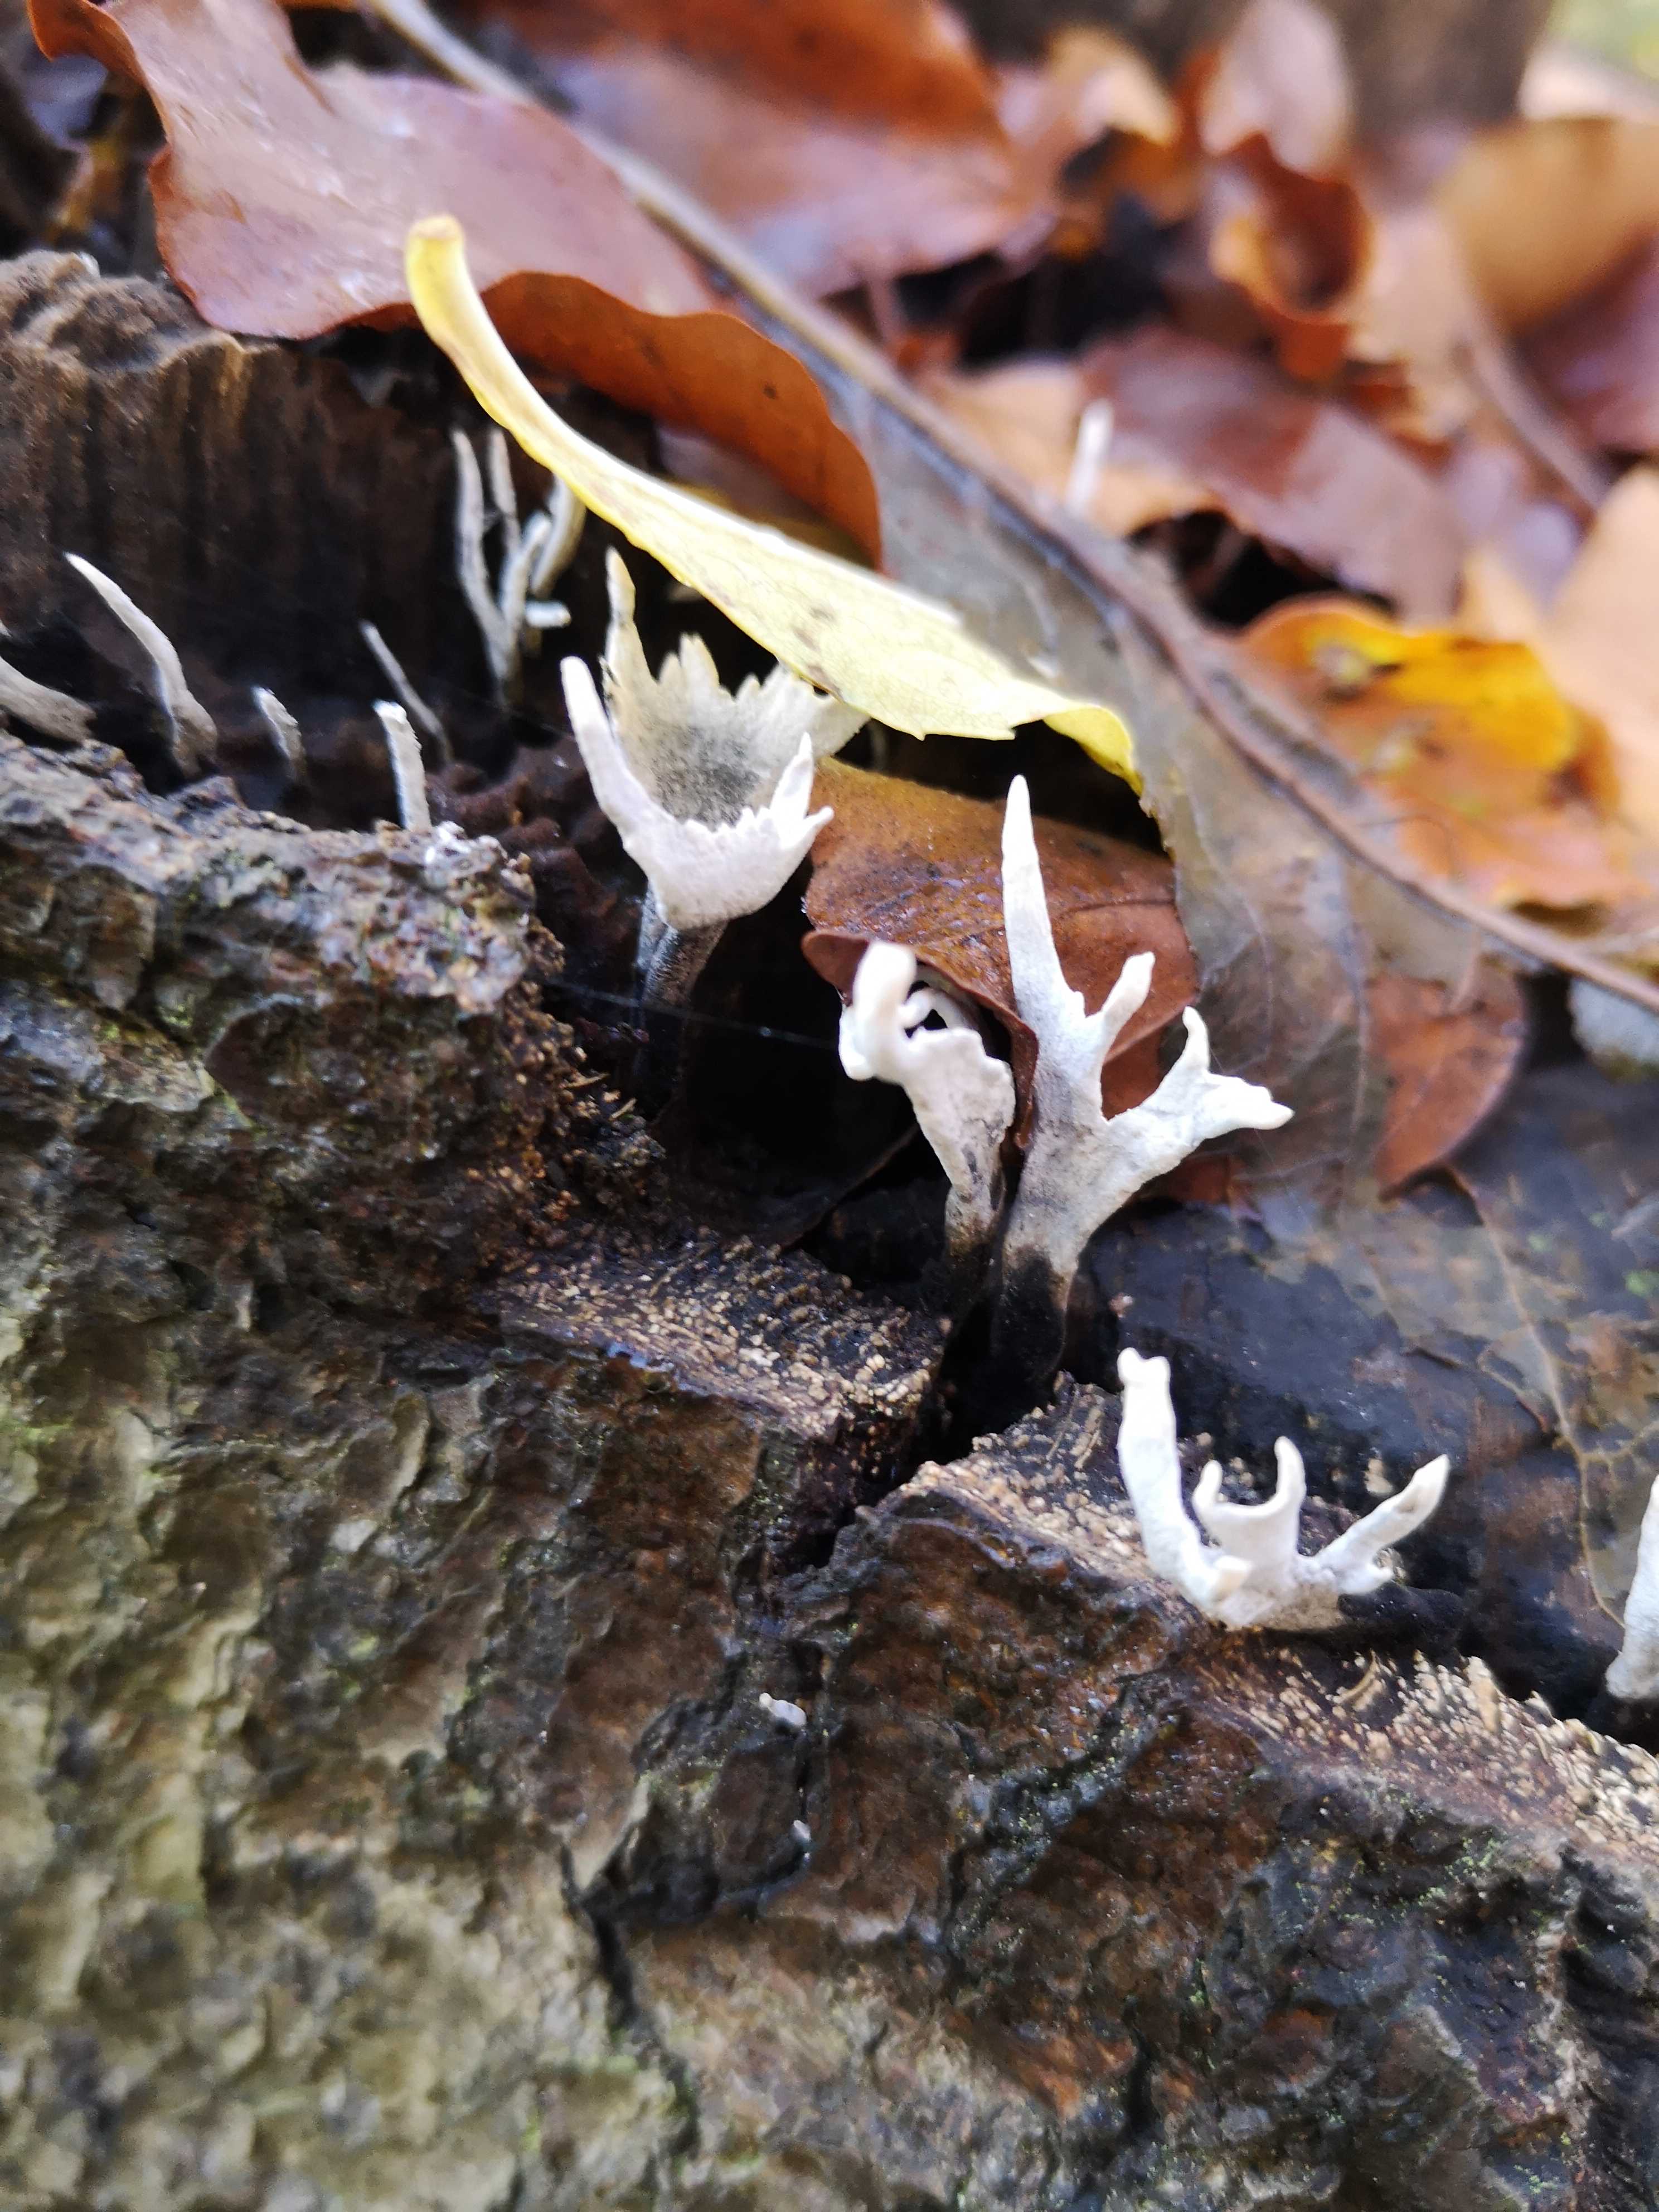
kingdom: Fungi
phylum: Ascomycota
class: Sordariomycetes
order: Xylariales
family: Xylariaceae
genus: Xylaria
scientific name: Xylaria hypoxylon
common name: grenet stødsvamp
